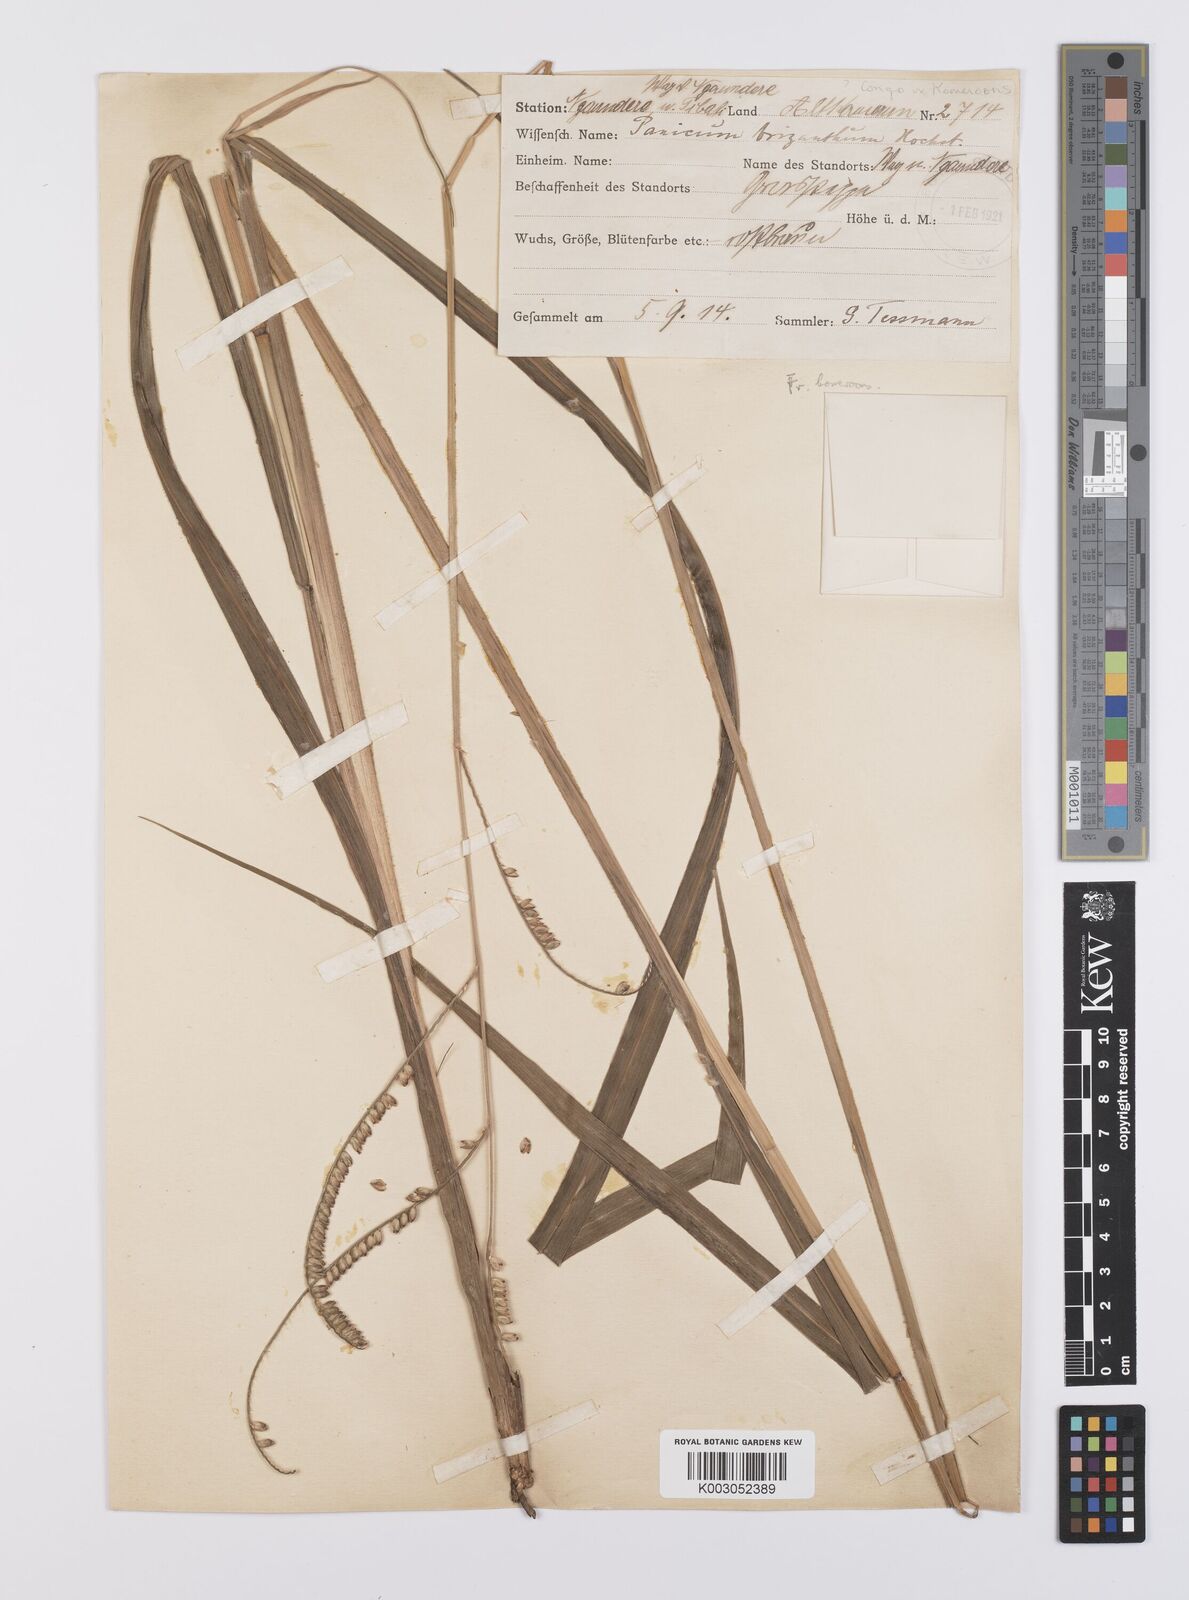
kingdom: Plantae
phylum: Tracheophyta
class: Liliopsida
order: Poales
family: Poaceae
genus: Urochloa
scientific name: Urochloa brizantha
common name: Palisade signalgrass
